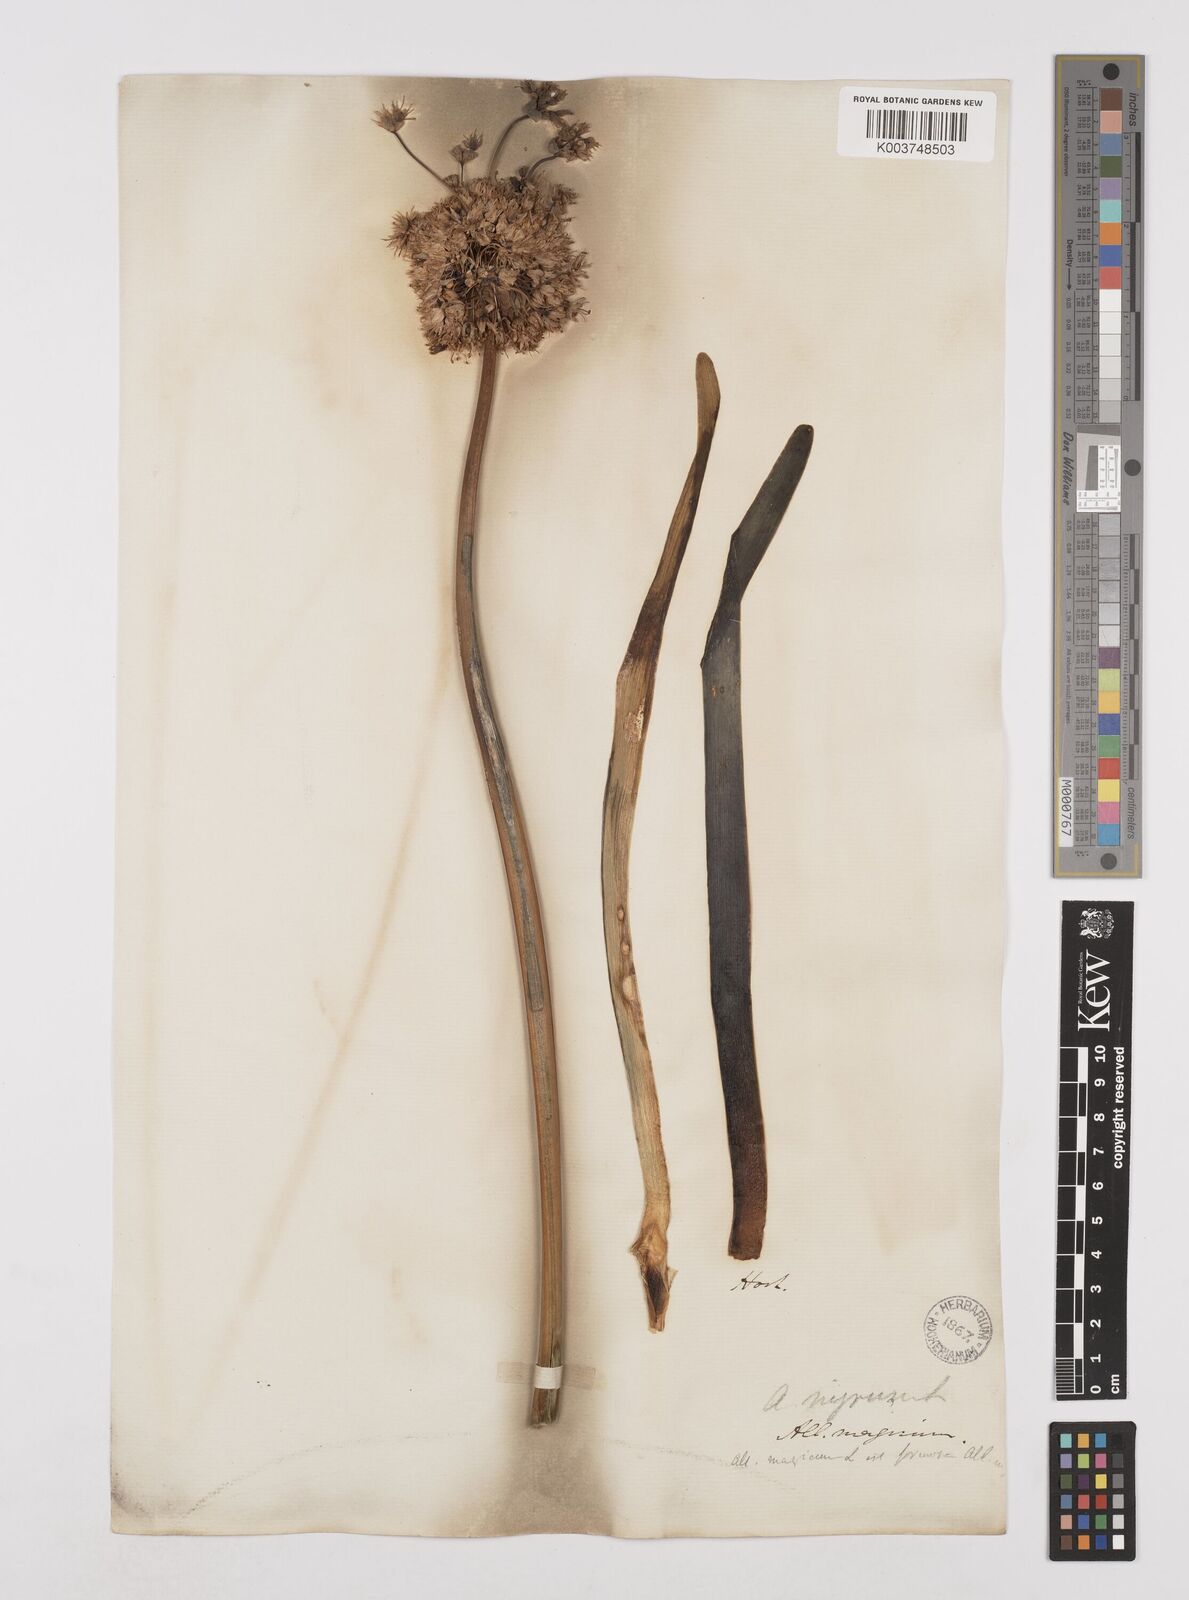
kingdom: Plantae
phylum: Tracheophyta
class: Liliopsida
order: Asparagales
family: Amaryllidaceae
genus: Allium
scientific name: Allium multibulbosum
